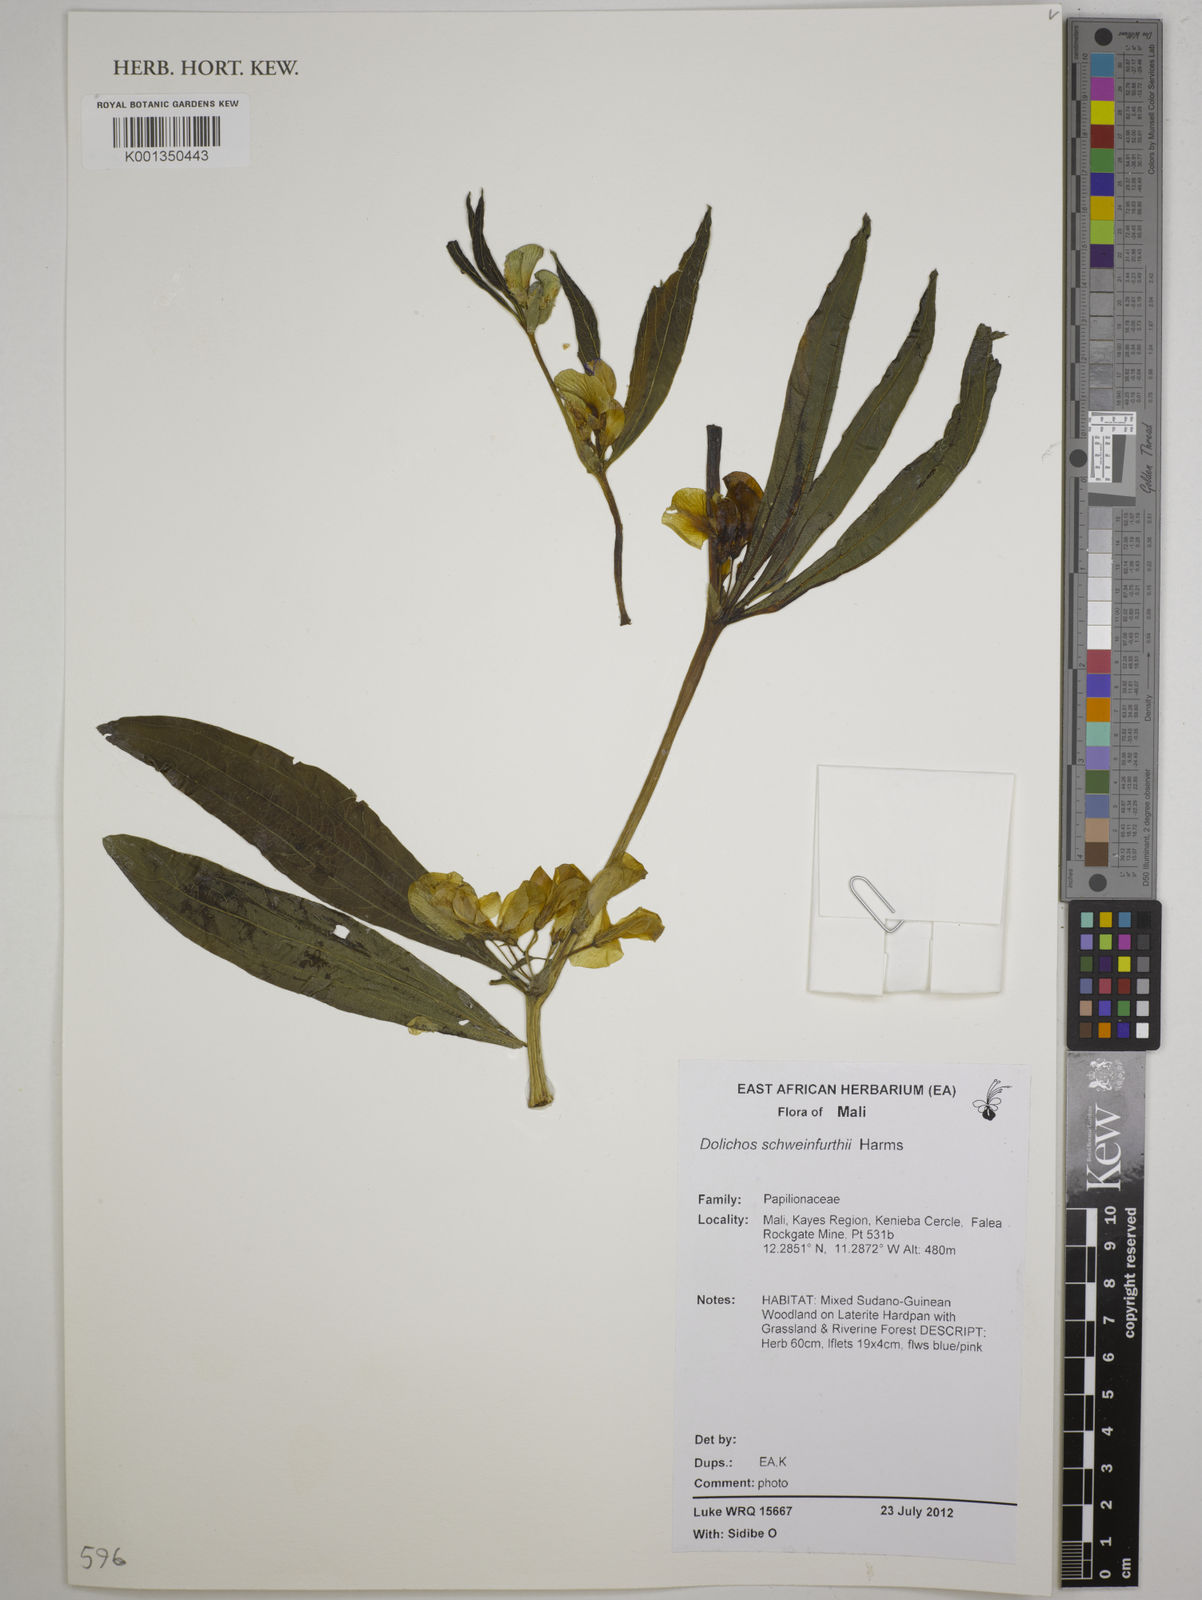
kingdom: Plantae
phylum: Tracheophyta
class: Magnoliopsida
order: Fabales
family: Fabaceae
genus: Dolichos
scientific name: Dolichos schweinfurthii
